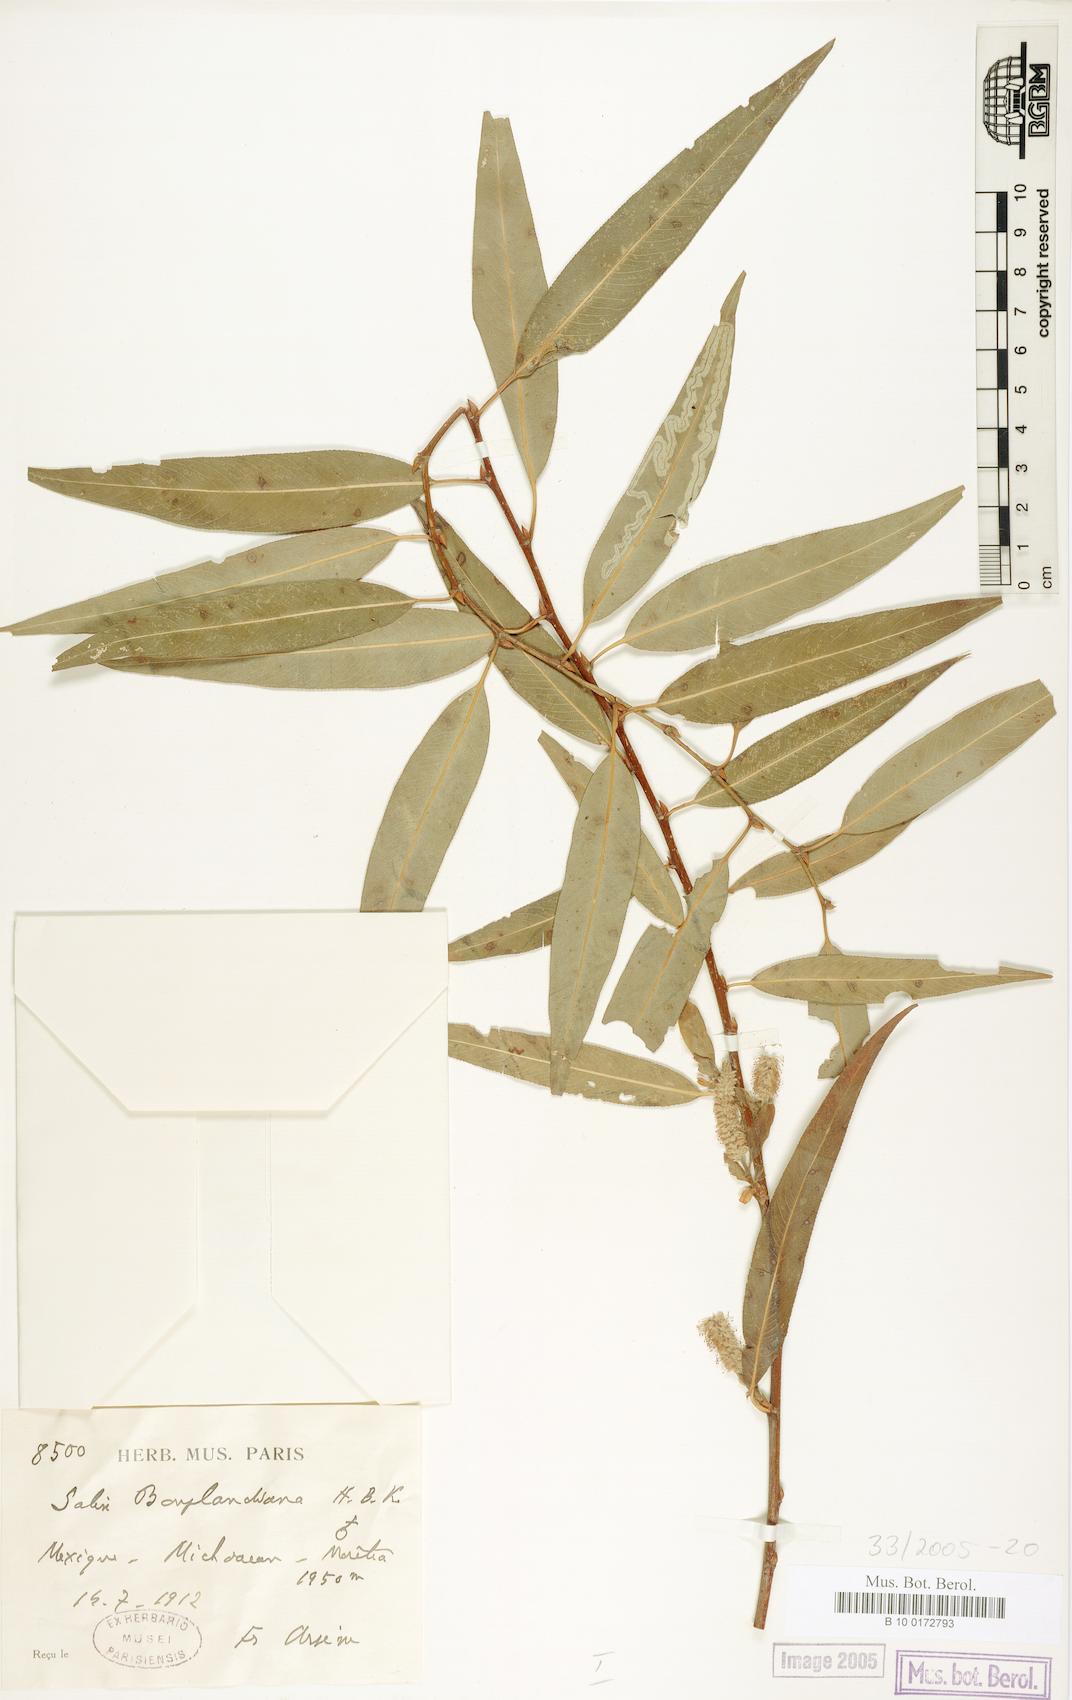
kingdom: Plantae
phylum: Tracheophyta
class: Magnoliopsida
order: Malpighiales
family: Salicaceae
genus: Salix
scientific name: Salix bonplandiana
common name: Bonpland’s willow
